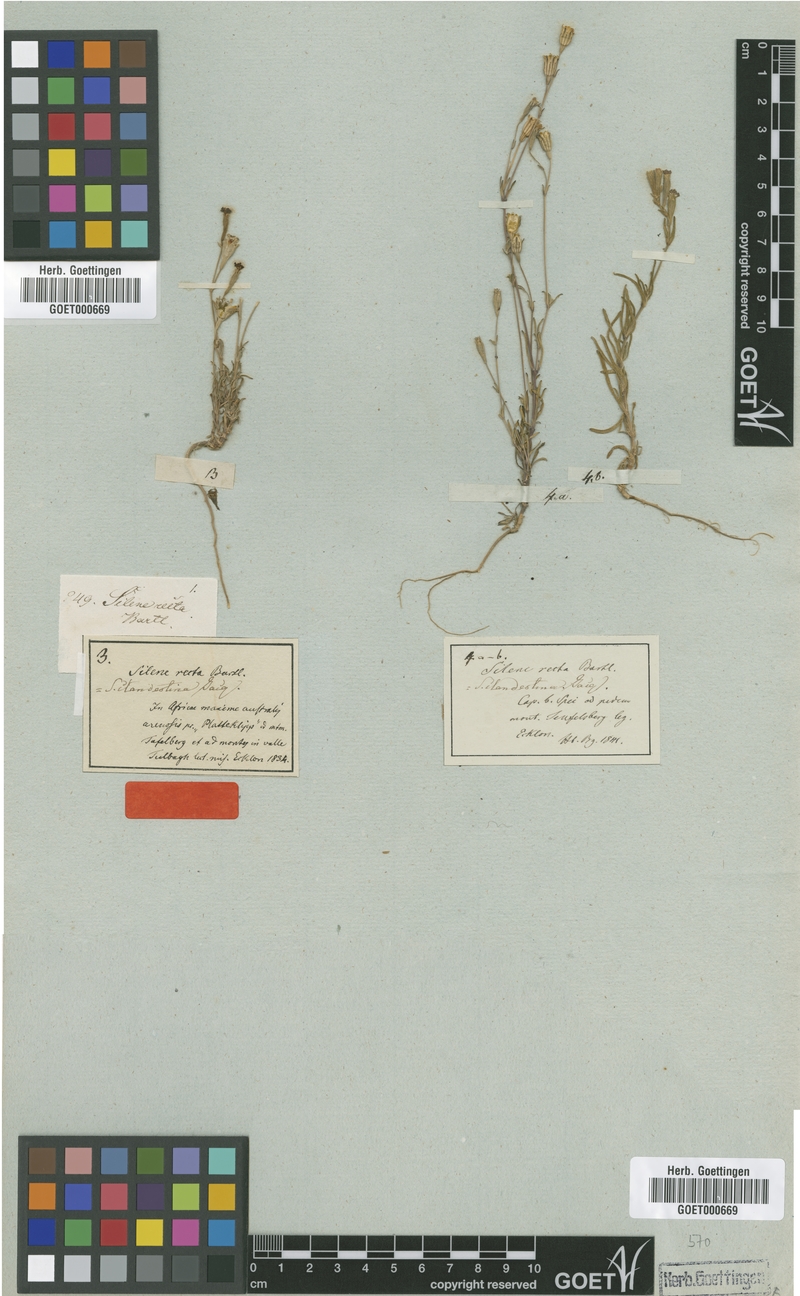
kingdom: Plantae
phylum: Tracheophyta
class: Magnoliopsida
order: Caryophyllales
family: Caryophyllaceae
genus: Silene
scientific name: Silene aethiopica
